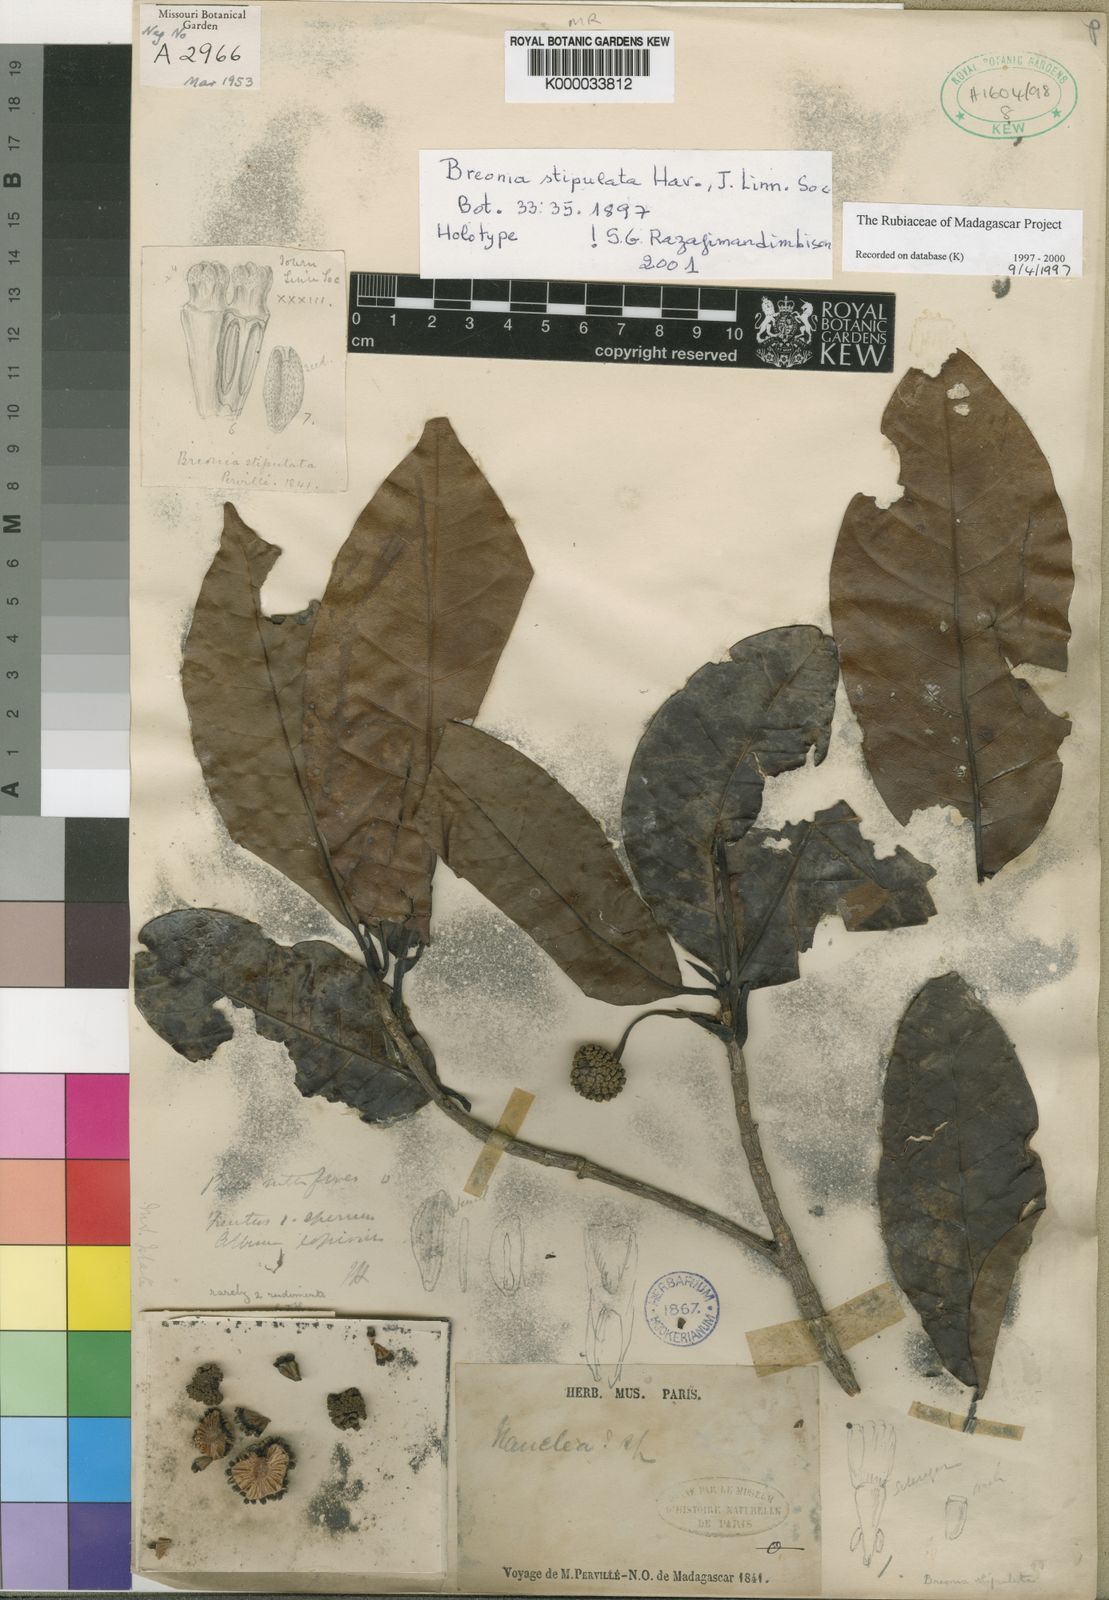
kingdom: Plantae
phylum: Tracheophyta
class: Magnoliopsida
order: Gentianales
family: Rubiaceae
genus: Breonia
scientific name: Breonia stipulata
